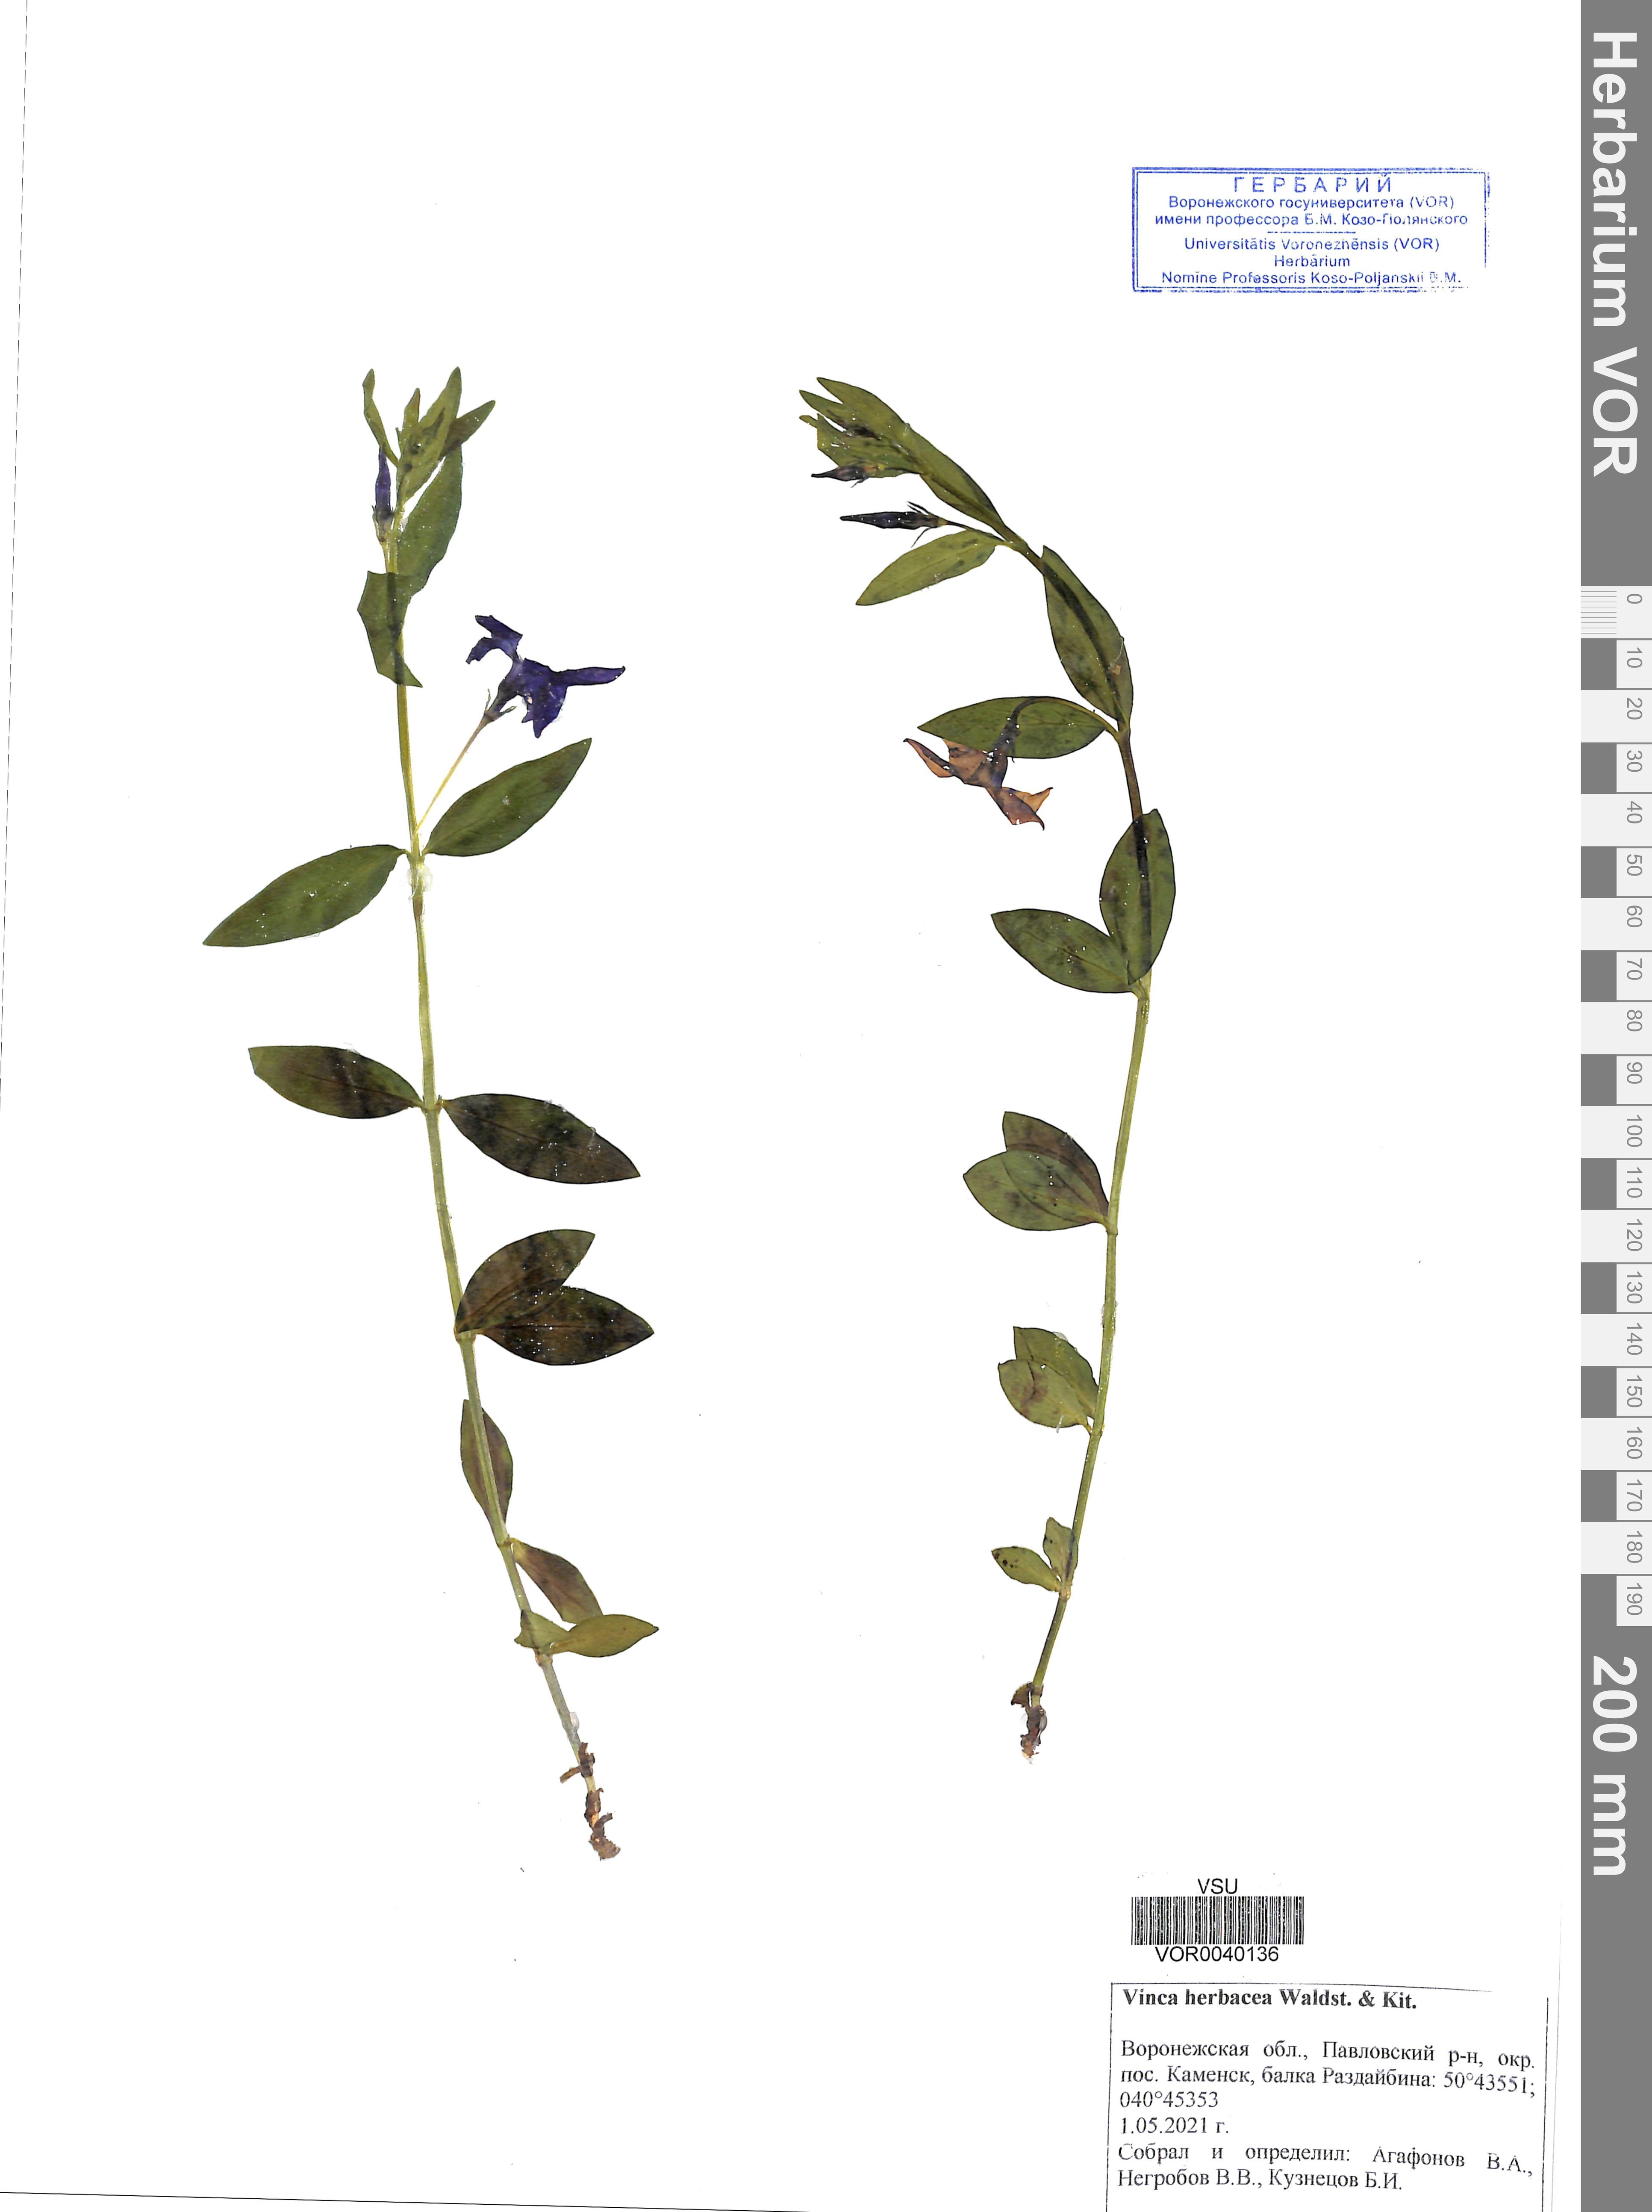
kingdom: Plantae
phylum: Tracheophyta
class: Magnoliopsida
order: Gentianales
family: Apocynaceae
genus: Vinca
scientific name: Vinca herbacea
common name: Herbaceous periwinkle
